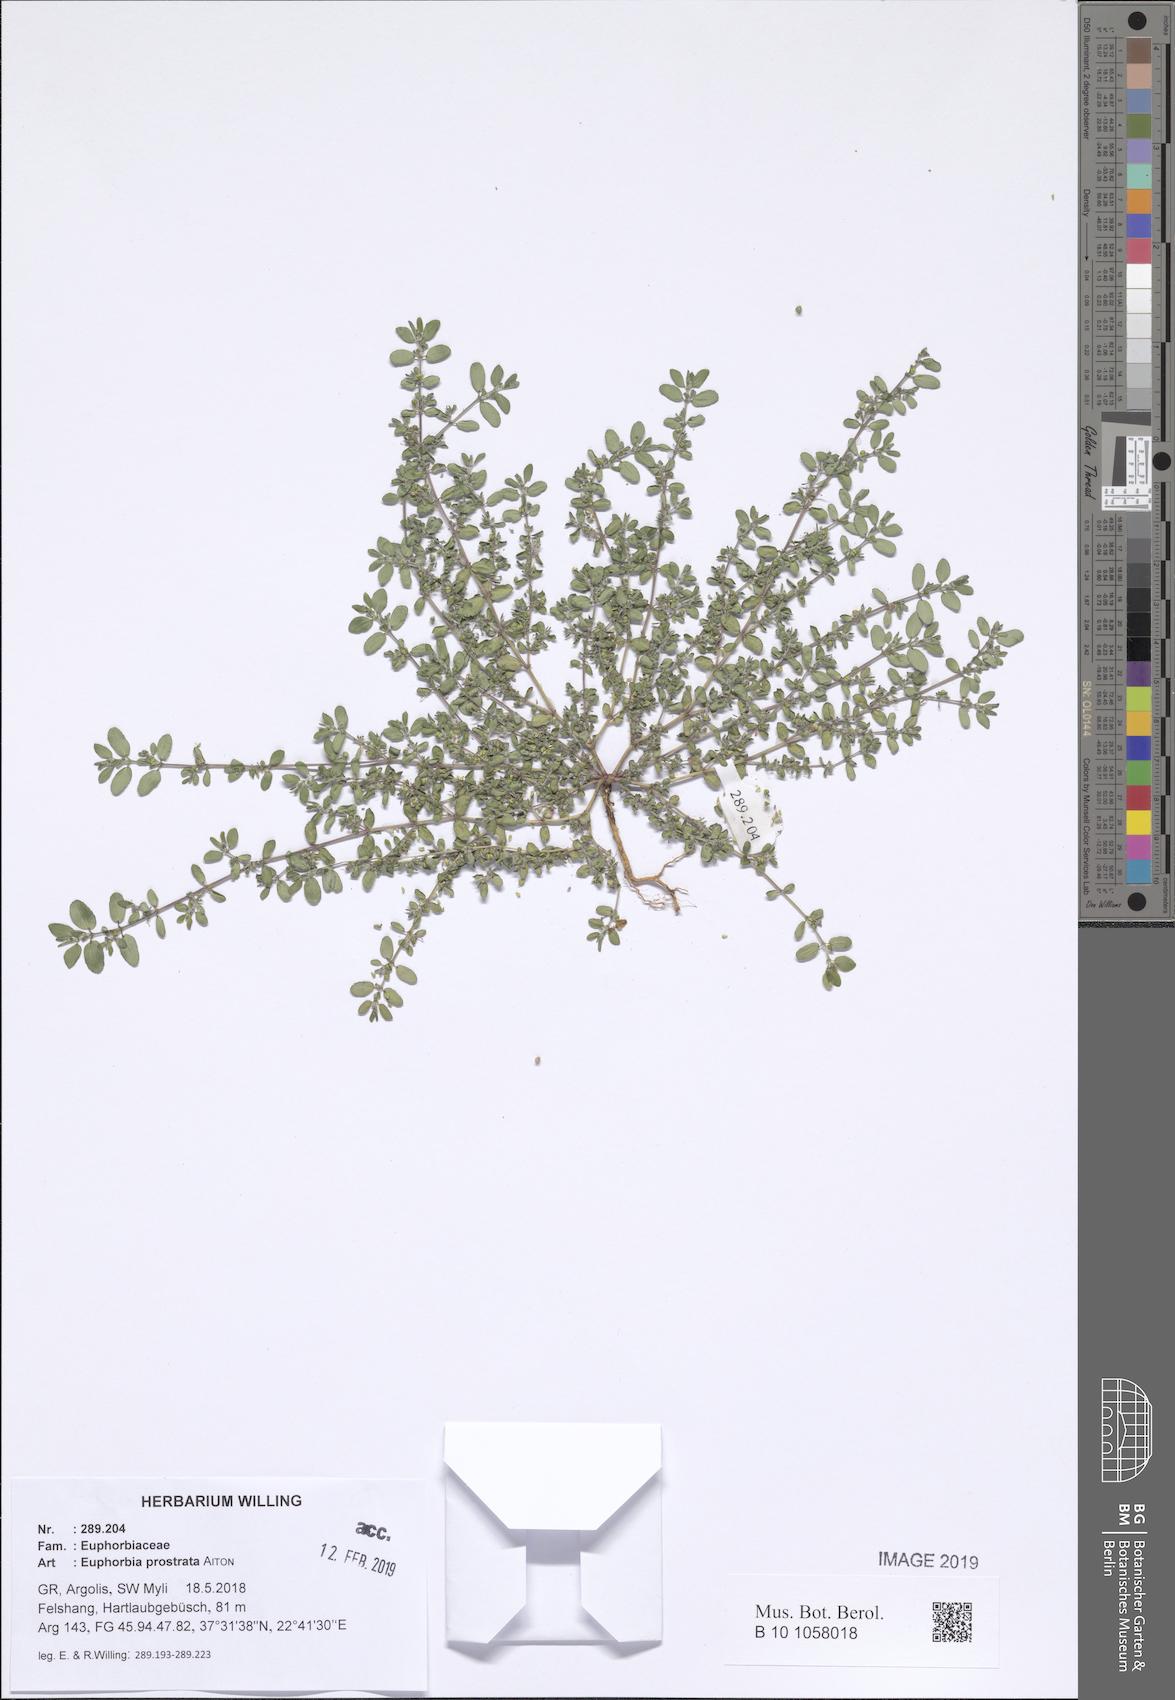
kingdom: Plantae
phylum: Tracheophyta
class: Magnoliopsida
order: Malpighiales
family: Euphorbiaceae
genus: Euphorbia
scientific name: Euphorbia prostrata
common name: Prostrate sandmat
